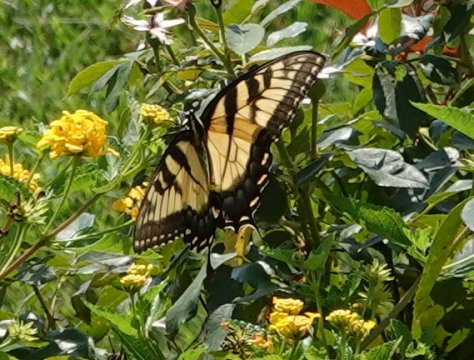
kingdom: Animalia
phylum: Arthropoda
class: Insecta
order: Lepidoptera
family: Papilionidae
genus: Pterourus
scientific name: Pterourus glaucus
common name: Eastern Tiger Swallowtail
